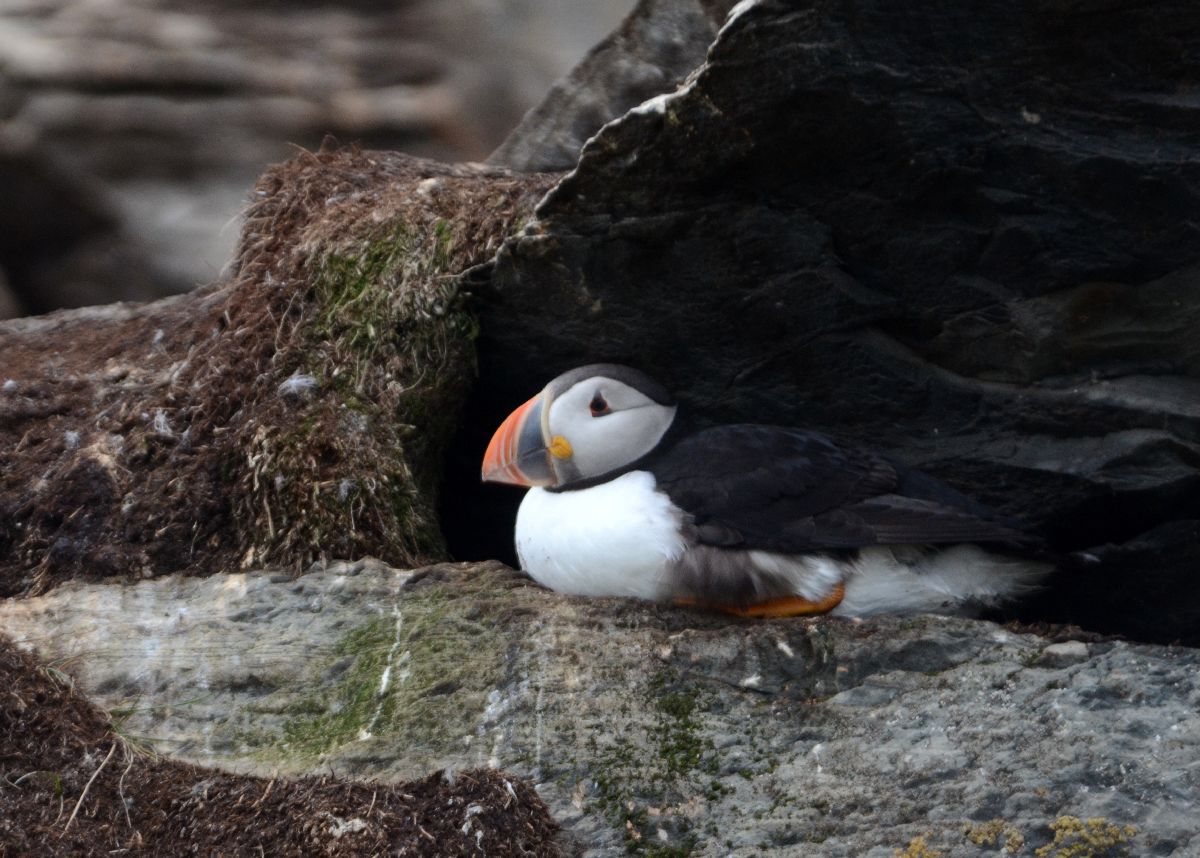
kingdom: Animalia
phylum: Chordata
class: Aves
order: Charadriiformes
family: Alcidae
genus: Fratercula
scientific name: Fratercula arctica
